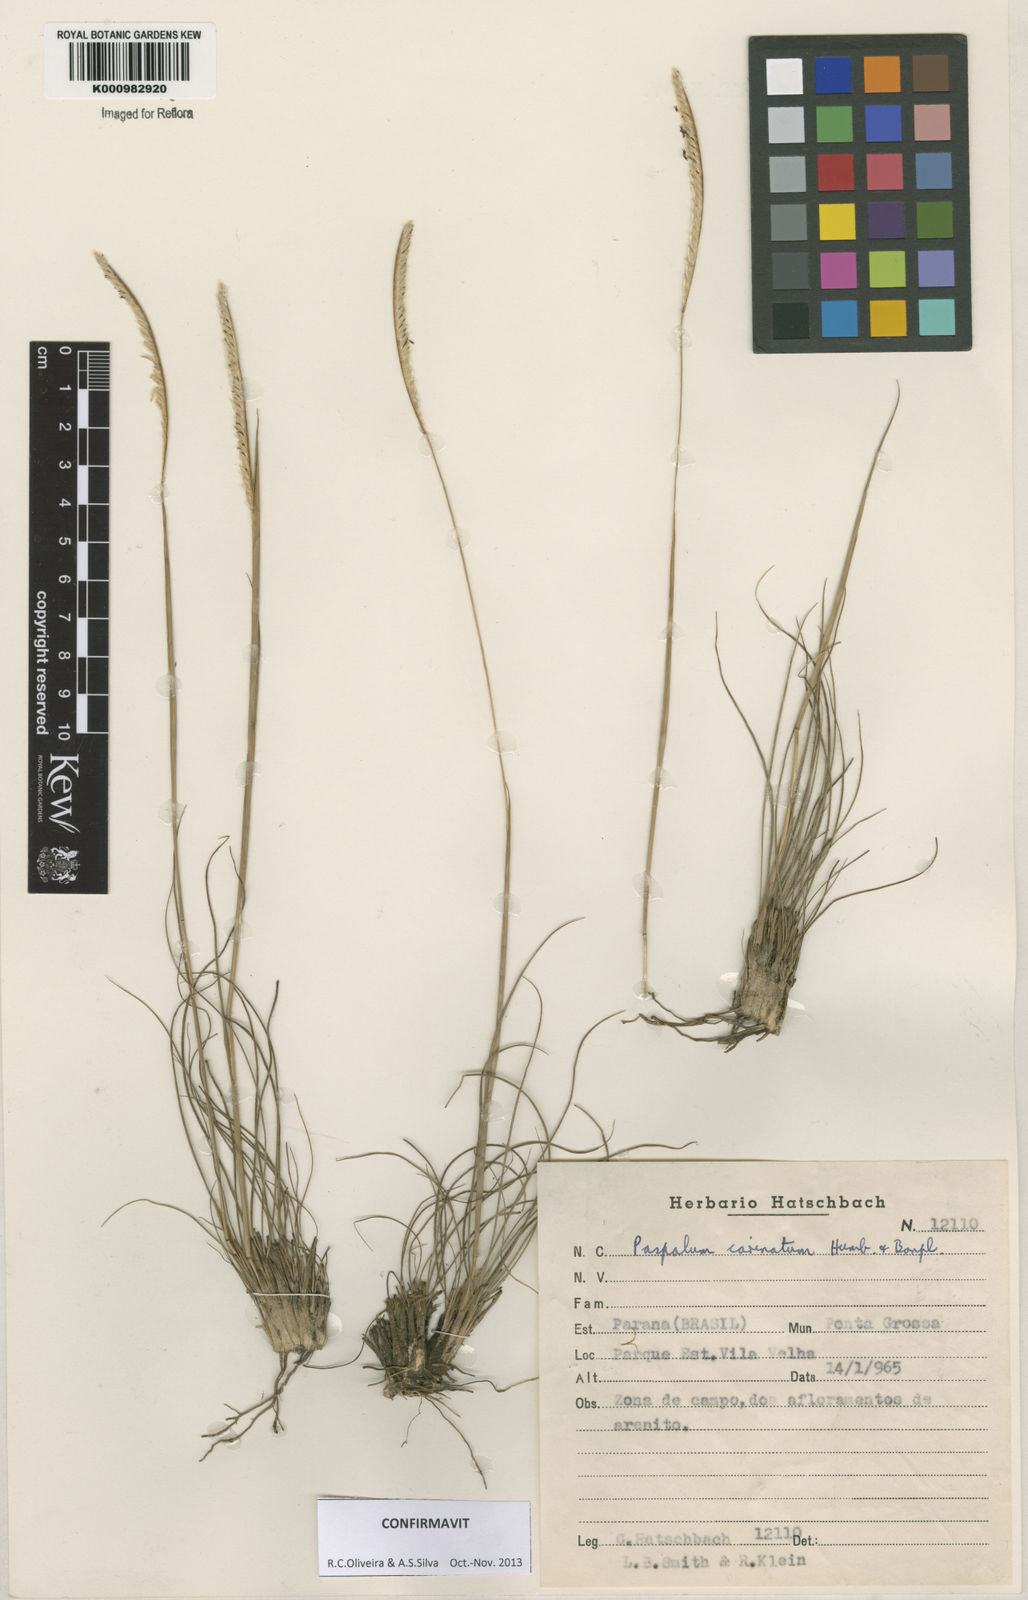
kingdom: Plantae
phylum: Tracheophyta
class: Liliopsida
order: Poales
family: Poaceae
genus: Paspalum
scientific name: Paspalum
